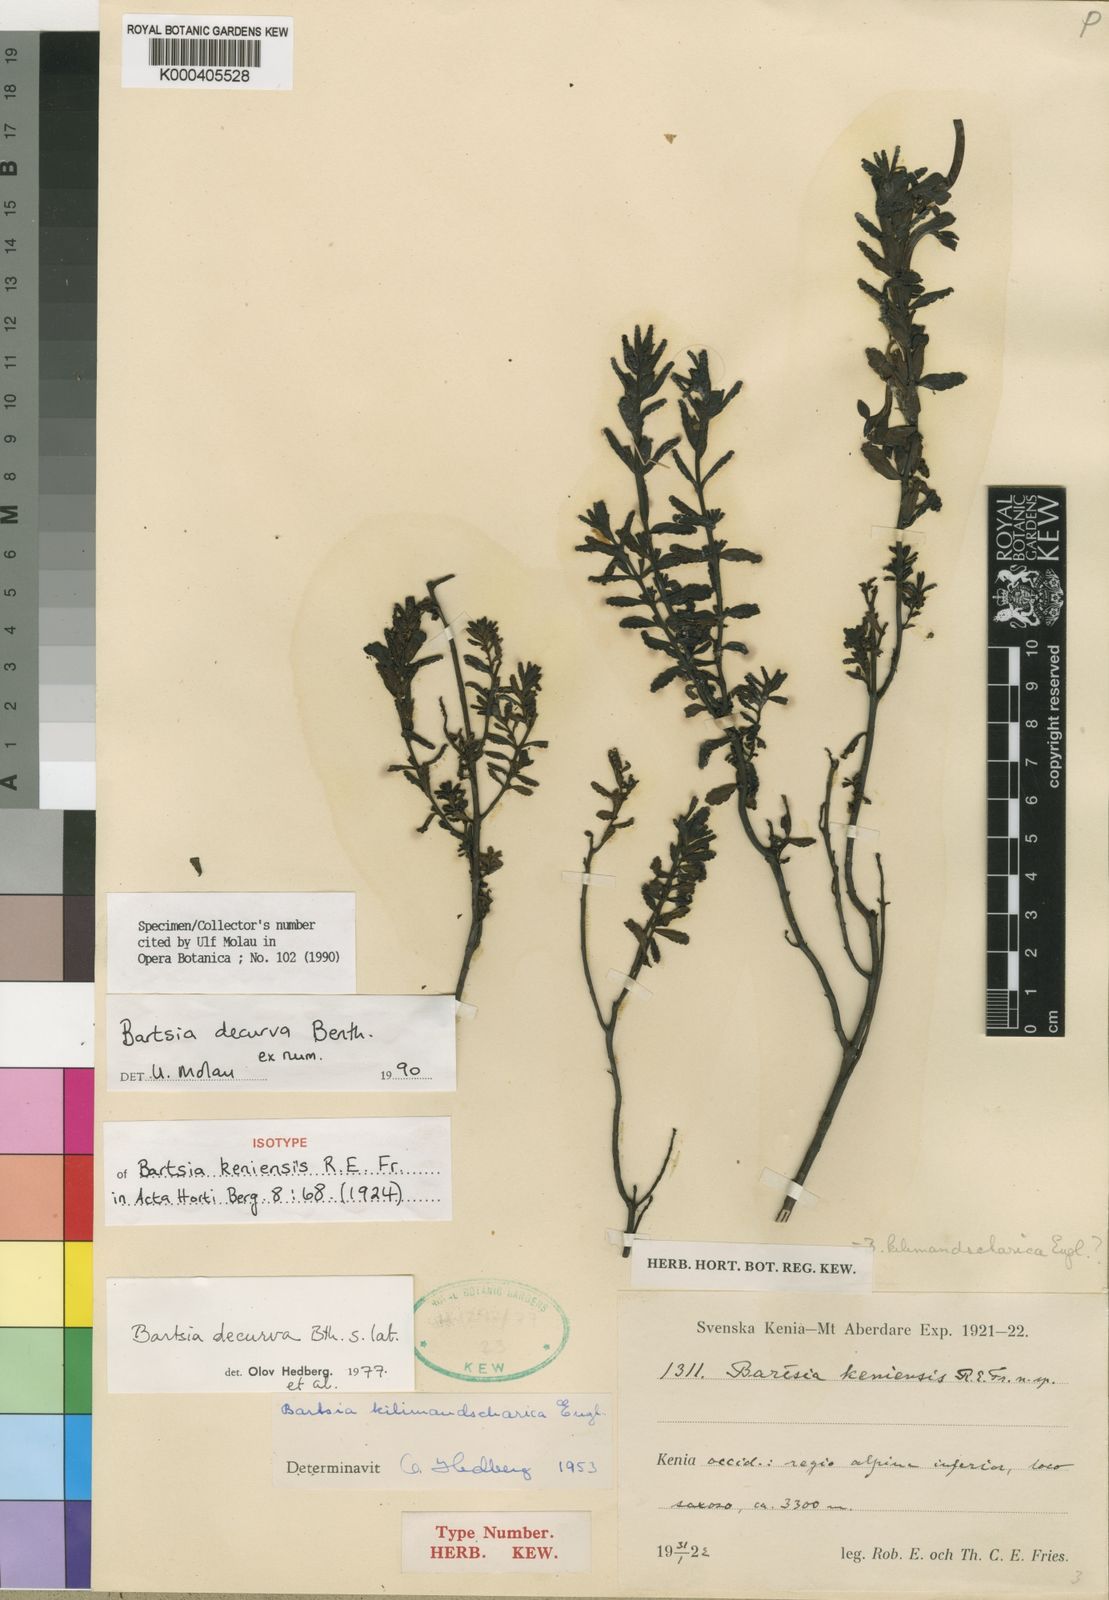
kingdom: Plantae
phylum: Tracheophyta
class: Magnoliopsida
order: Lamiales
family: Orobanchaceae
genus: Hedbergia
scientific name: Hedbergia decurva
